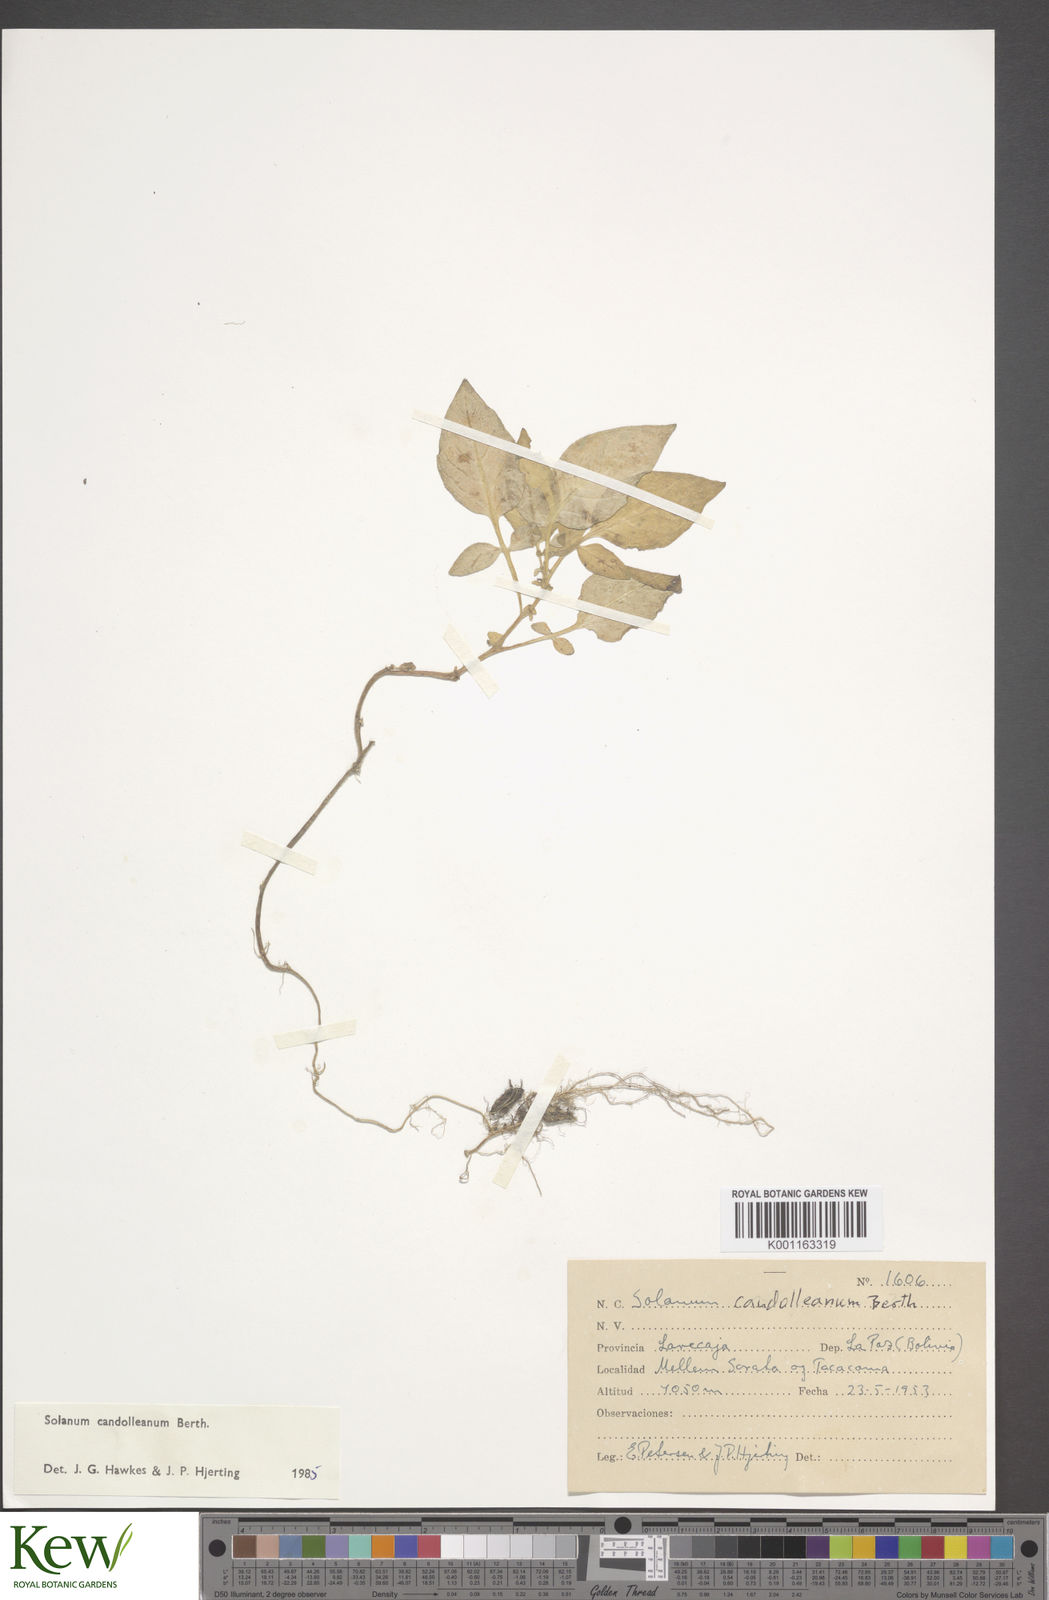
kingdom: Plantae
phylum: Tracheophyta
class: Magnoliopsida
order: Solanales
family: Solanaceae
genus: Solanum
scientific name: Solanum candolleanum
